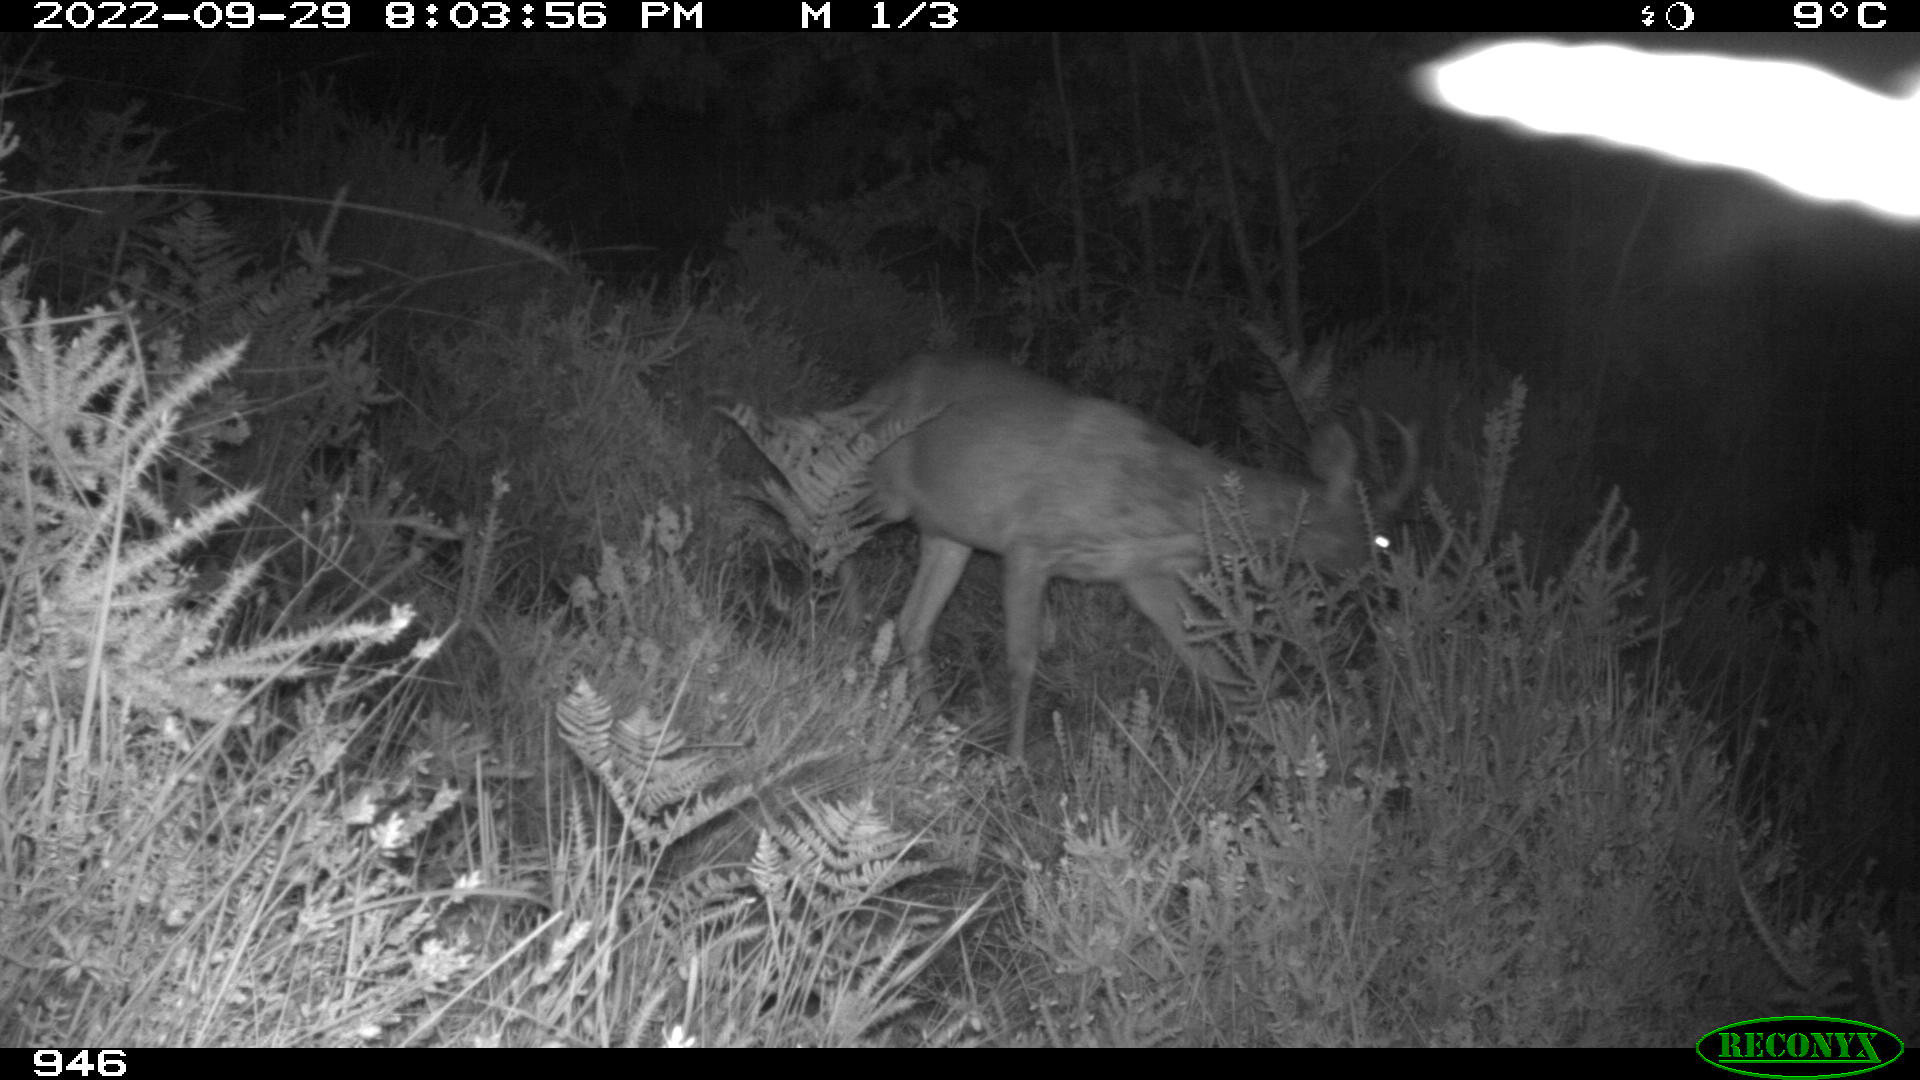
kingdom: Animalia
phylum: Chordata
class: Mammalia
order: Artiodactyla
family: Cervidae
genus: Capreolus
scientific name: Capreolus capreolus
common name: Western roe deer
